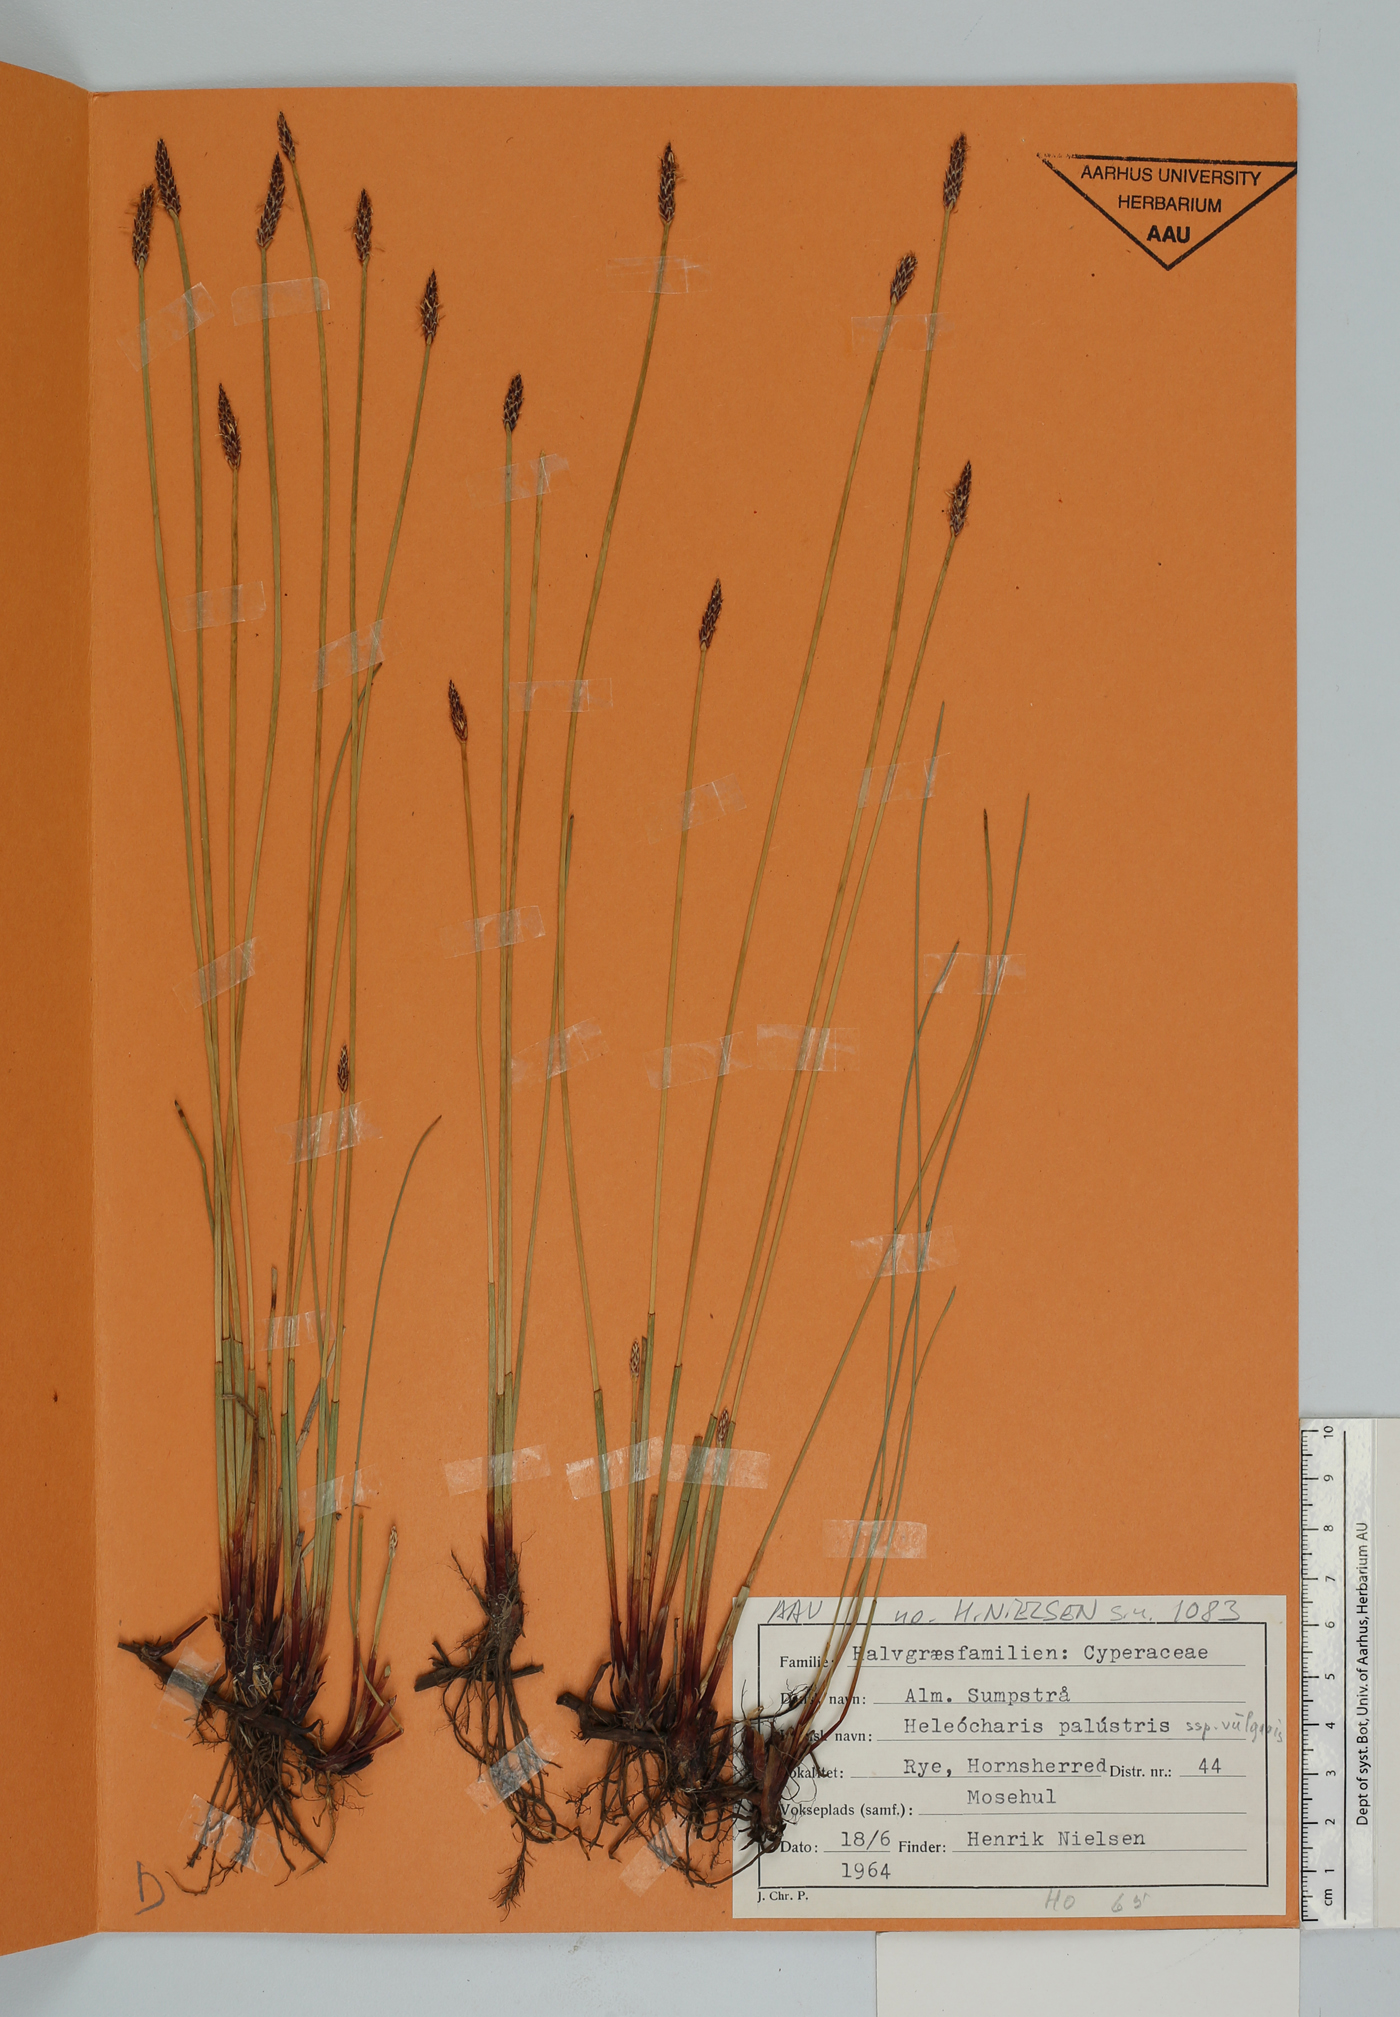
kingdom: Plantae
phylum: Tracheophyta
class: Liliopsida
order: Poales
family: Cyperaceae
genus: Eleocharis
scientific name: Eleocharis palustris
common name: Common spike-rush
